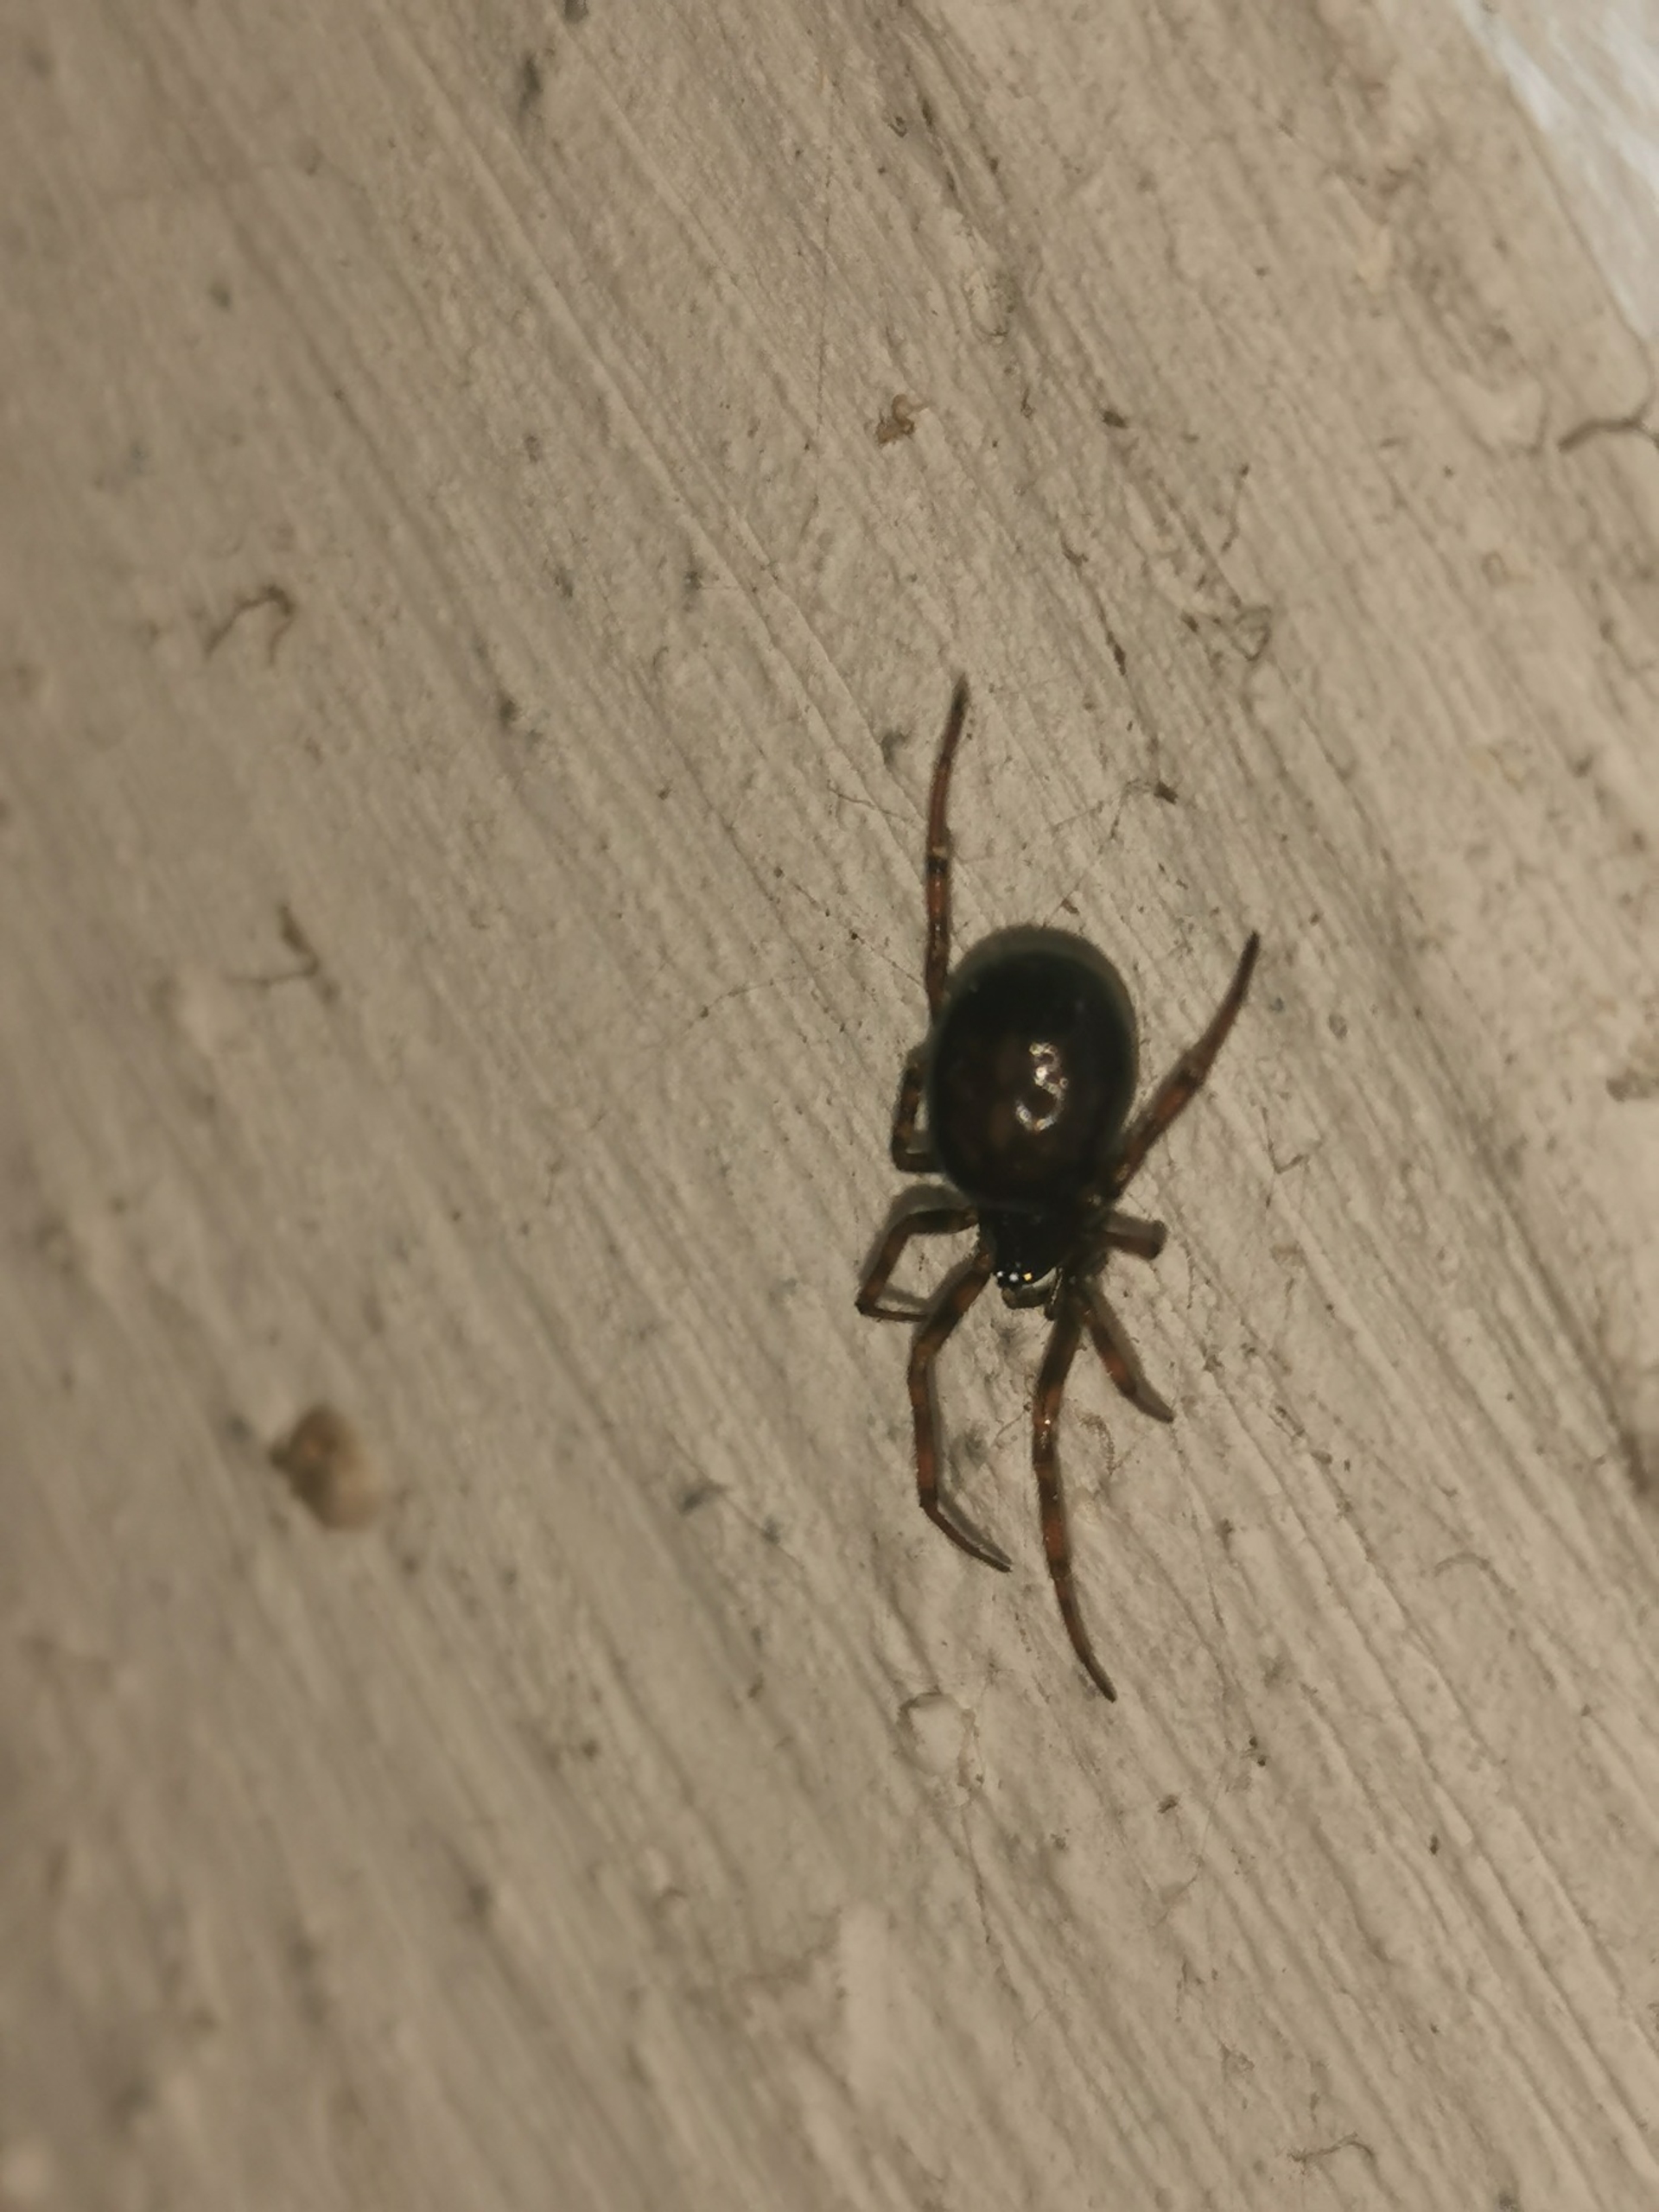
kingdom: Animalia
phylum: Arthropoda
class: Arachnida
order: Araneae
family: Theridiidae
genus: Steatoda
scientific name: Steatoda bipunctata
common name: Fedtedderkop
